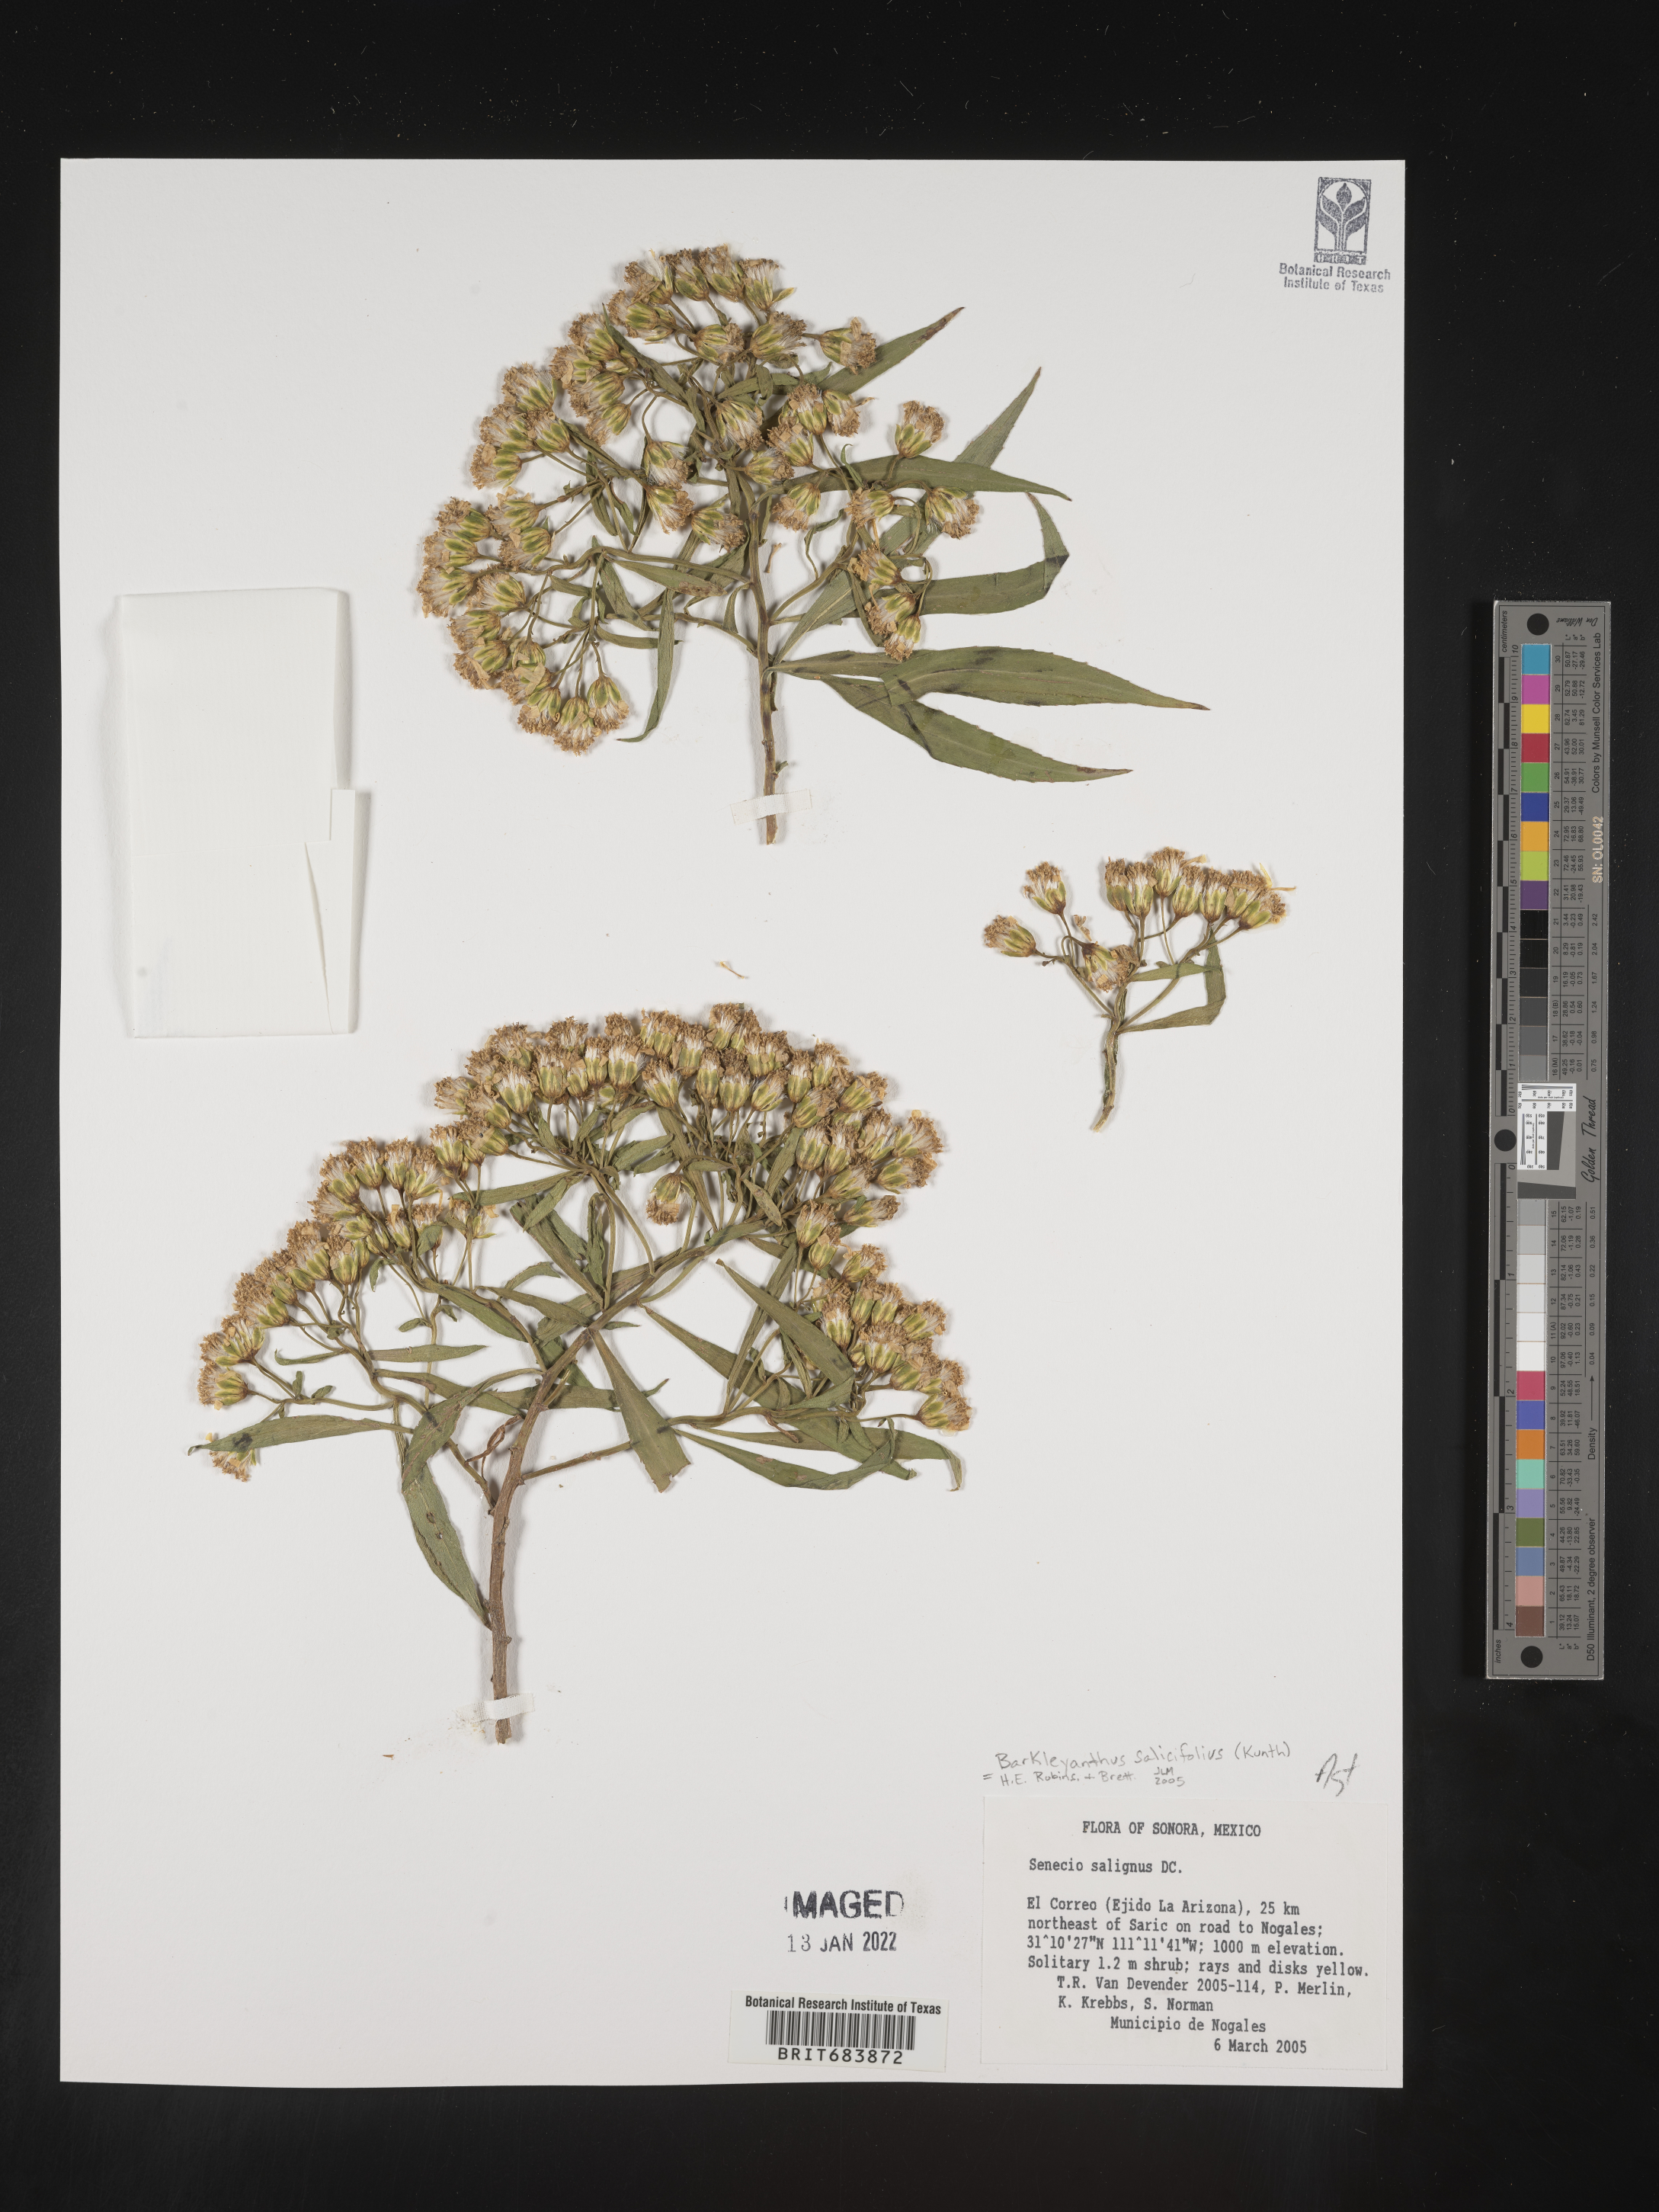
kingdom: Plantae
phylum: Tracheophyta
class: Magnoliopsida
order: Asterales
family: Asteraceae
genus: Barkleyanthus
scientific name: Barkleyanthus
